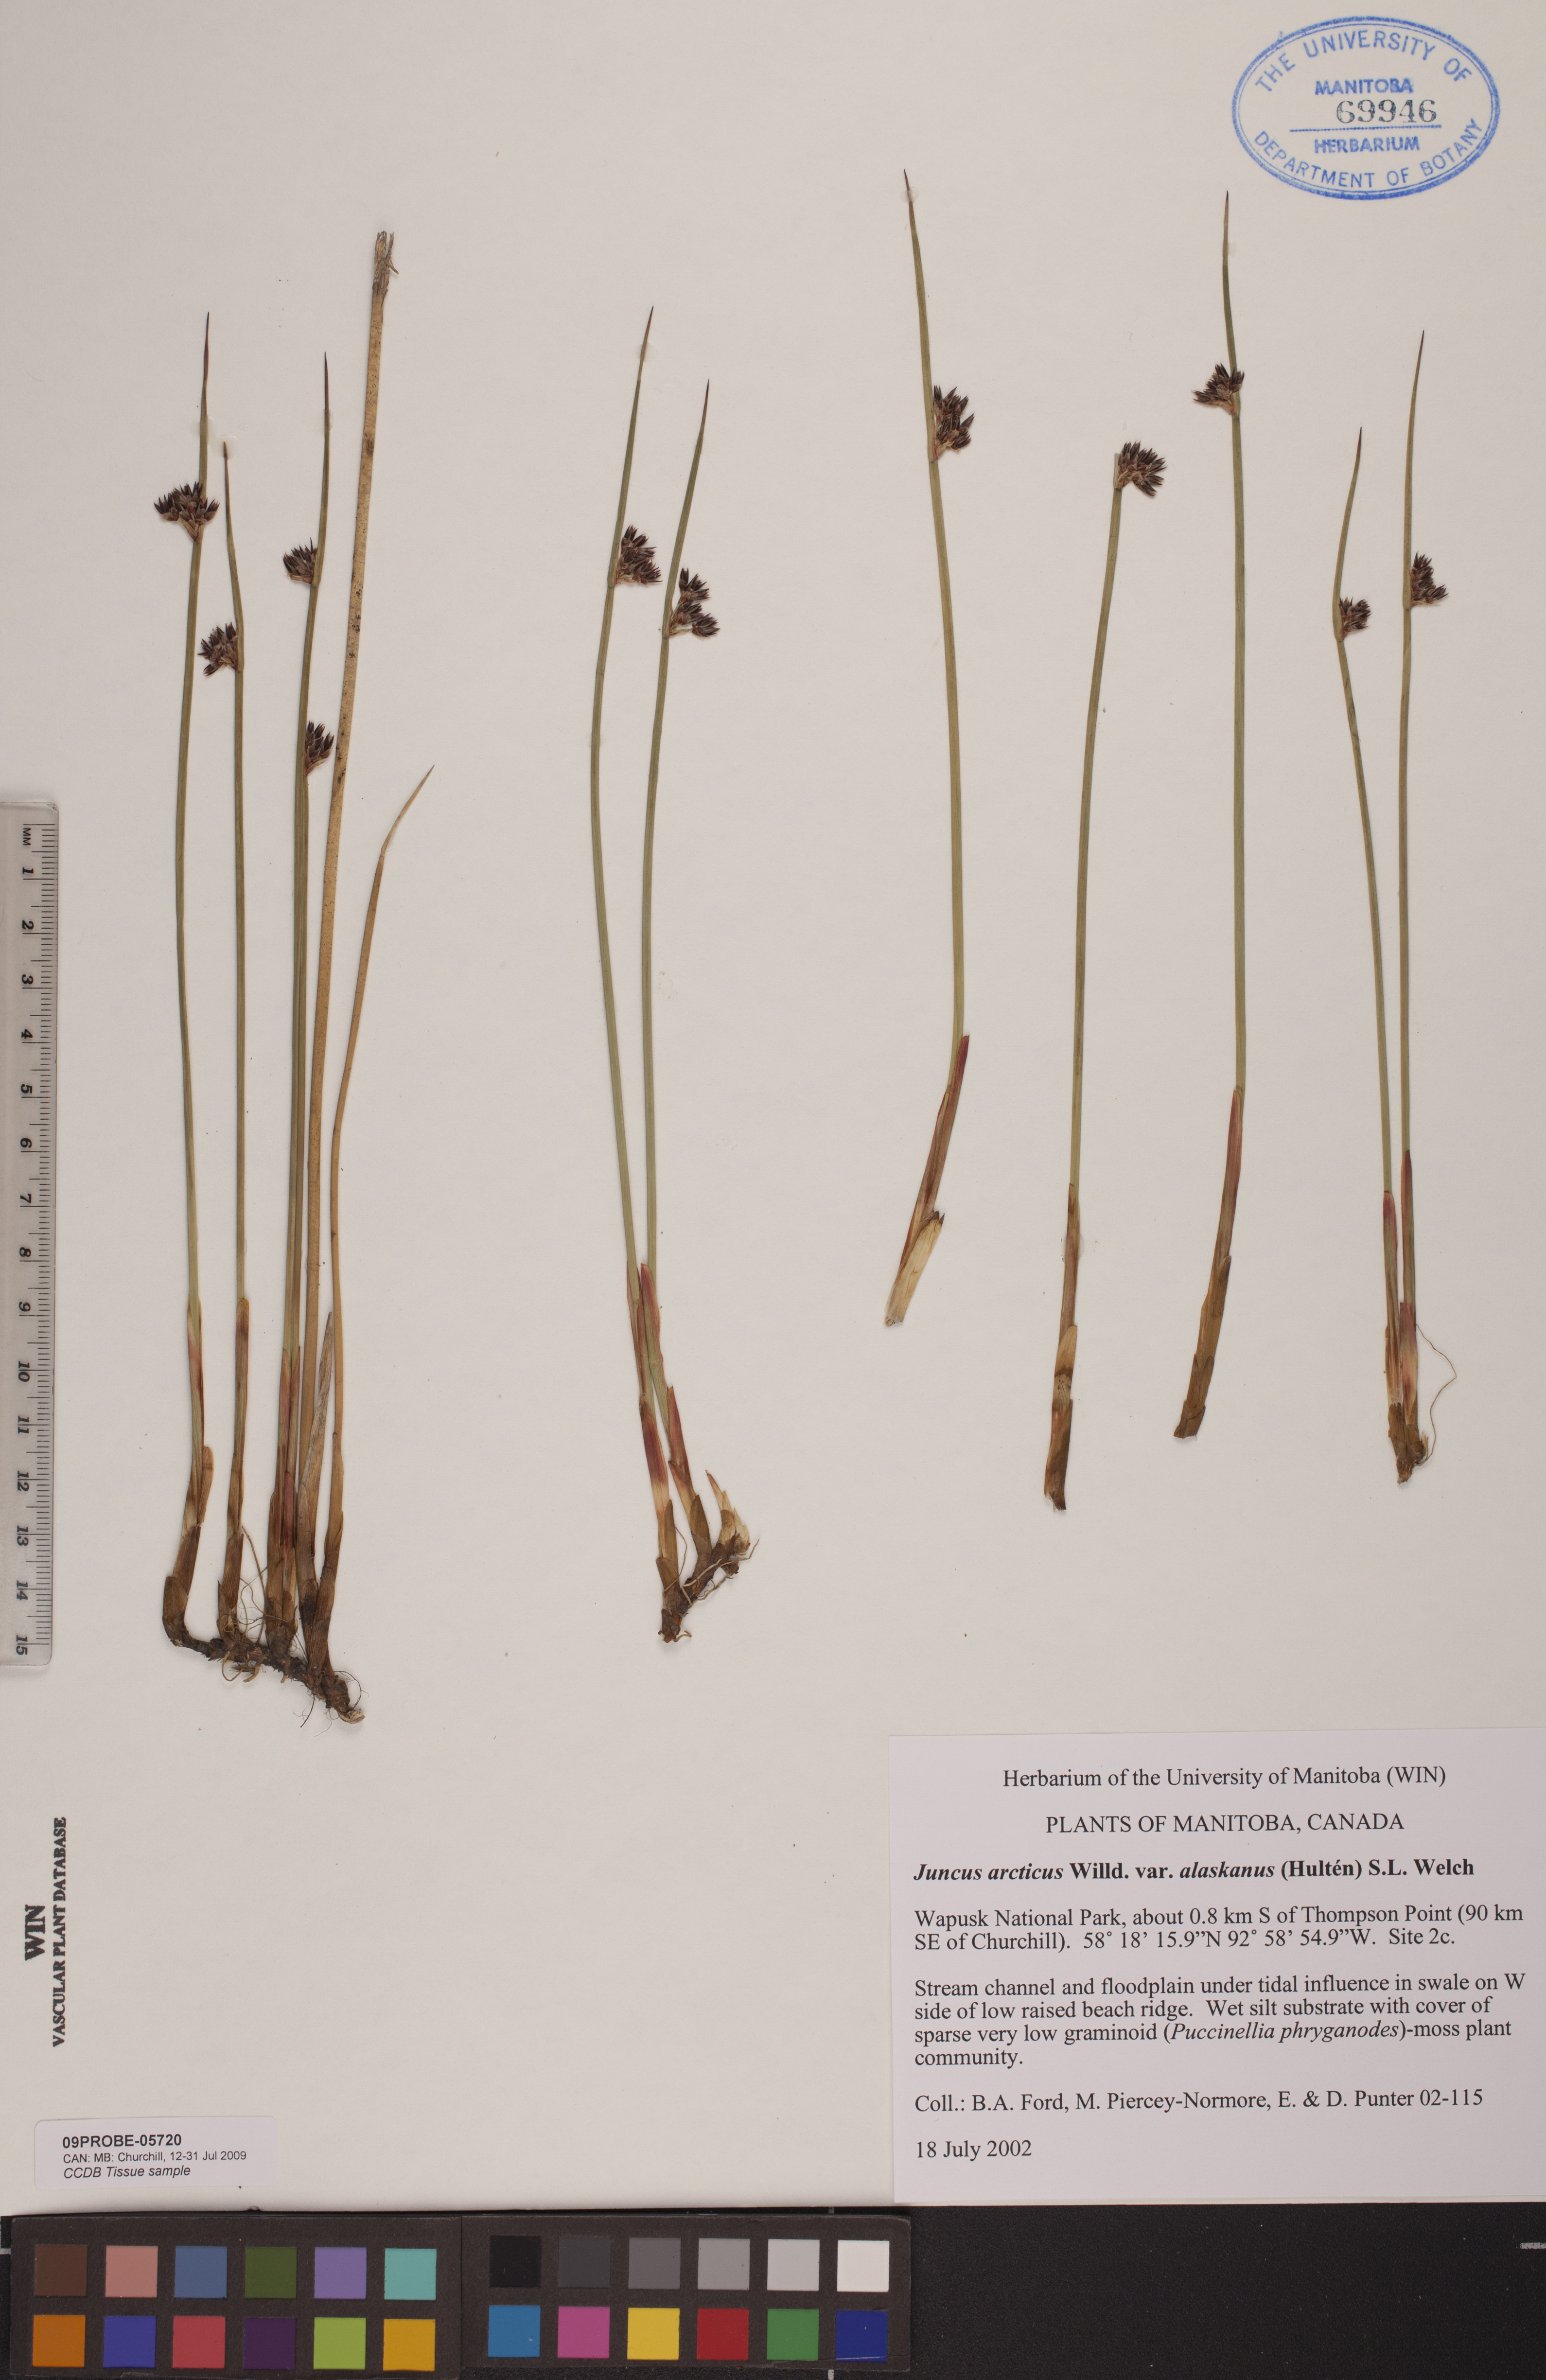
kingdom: Plantae
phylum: Tracheophyta
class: Liliopsida
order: Poales
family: Juncaceae
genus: Juncus
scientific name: Juncus arcticus
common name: Arctic rush
